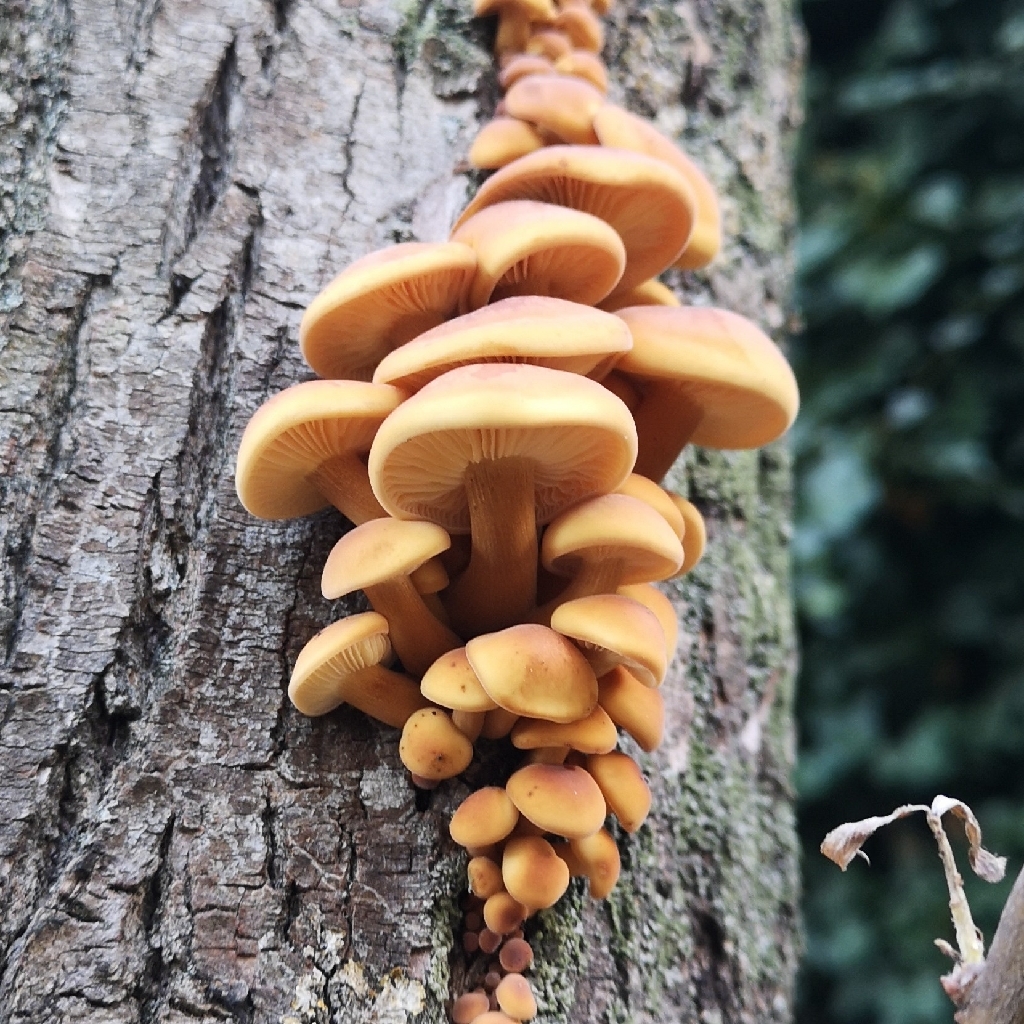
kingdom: Fungi
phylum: Basidiomycota
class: Agaricomycetes
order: Agaricales
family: Physalacriaceae
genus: Flammulina
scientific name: Flammulina
